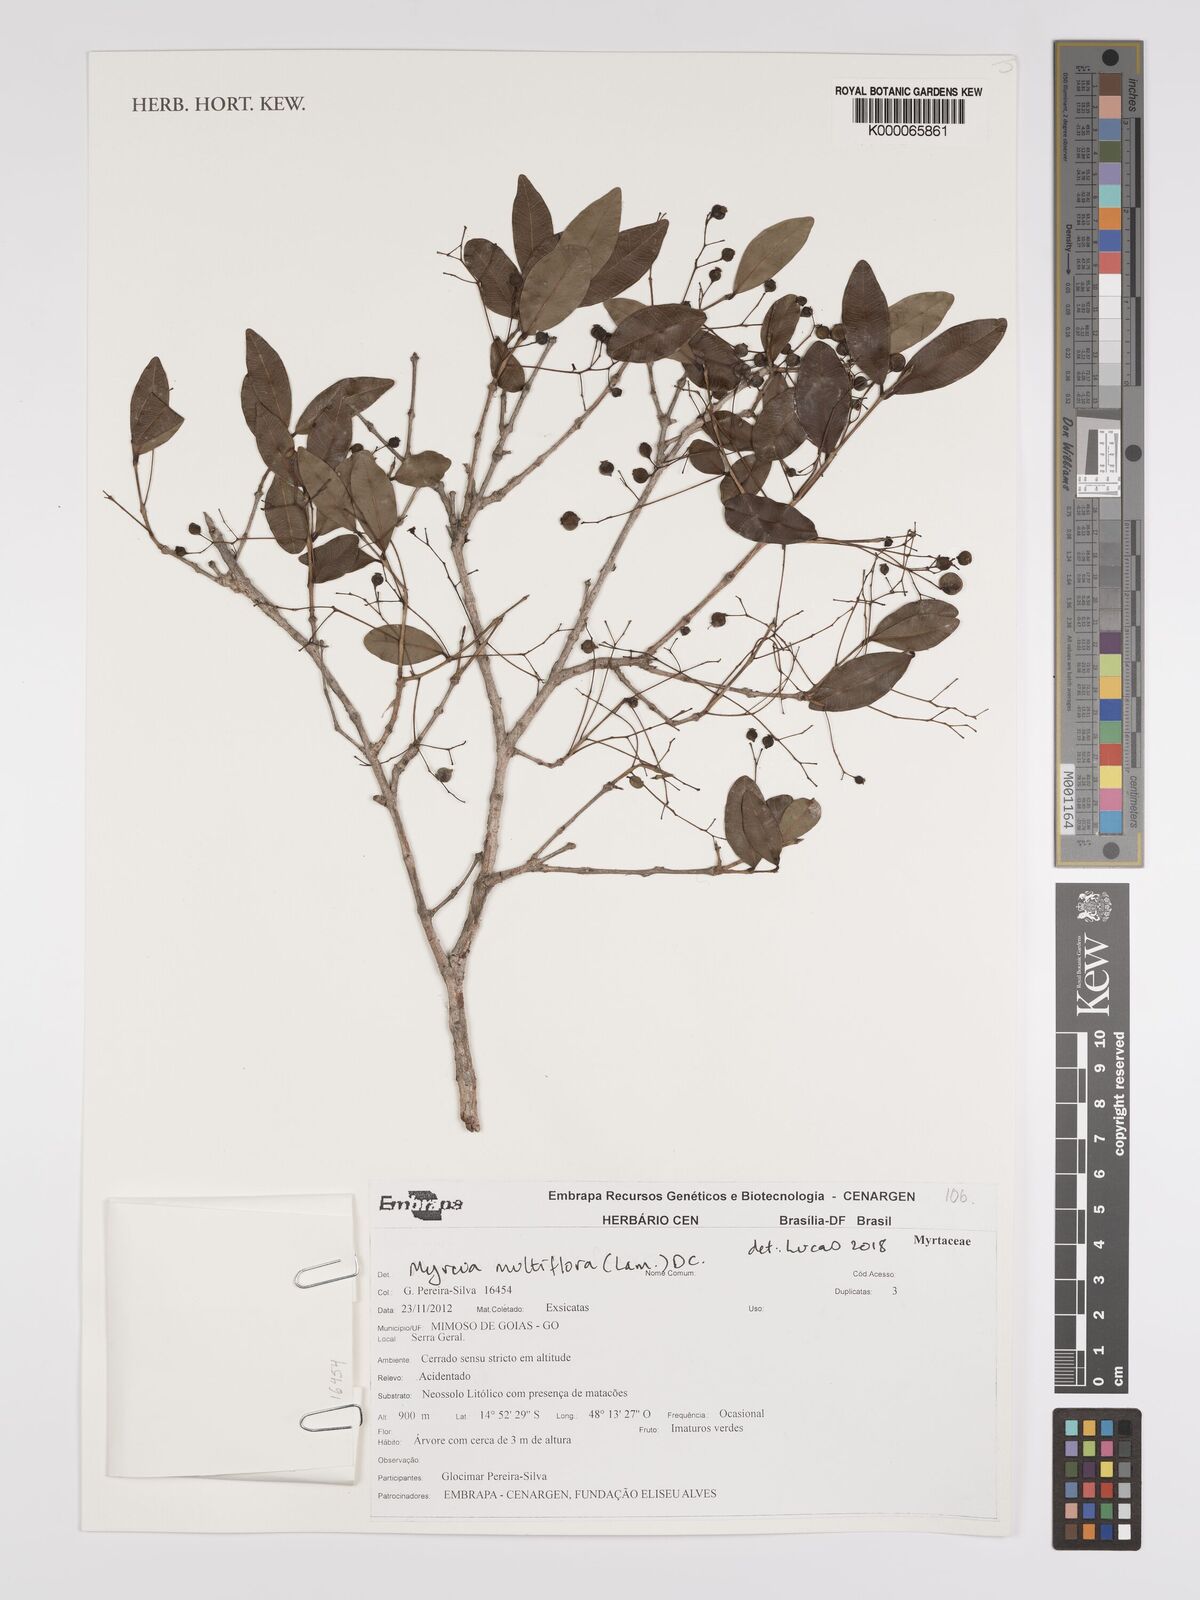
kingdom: Plantae
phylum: Tracheophyta
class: Magnoliopsida
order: Myrtales
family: Myrtaceae
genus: Myrcia
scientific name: Myrcia multiflora
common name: Pedra hume
